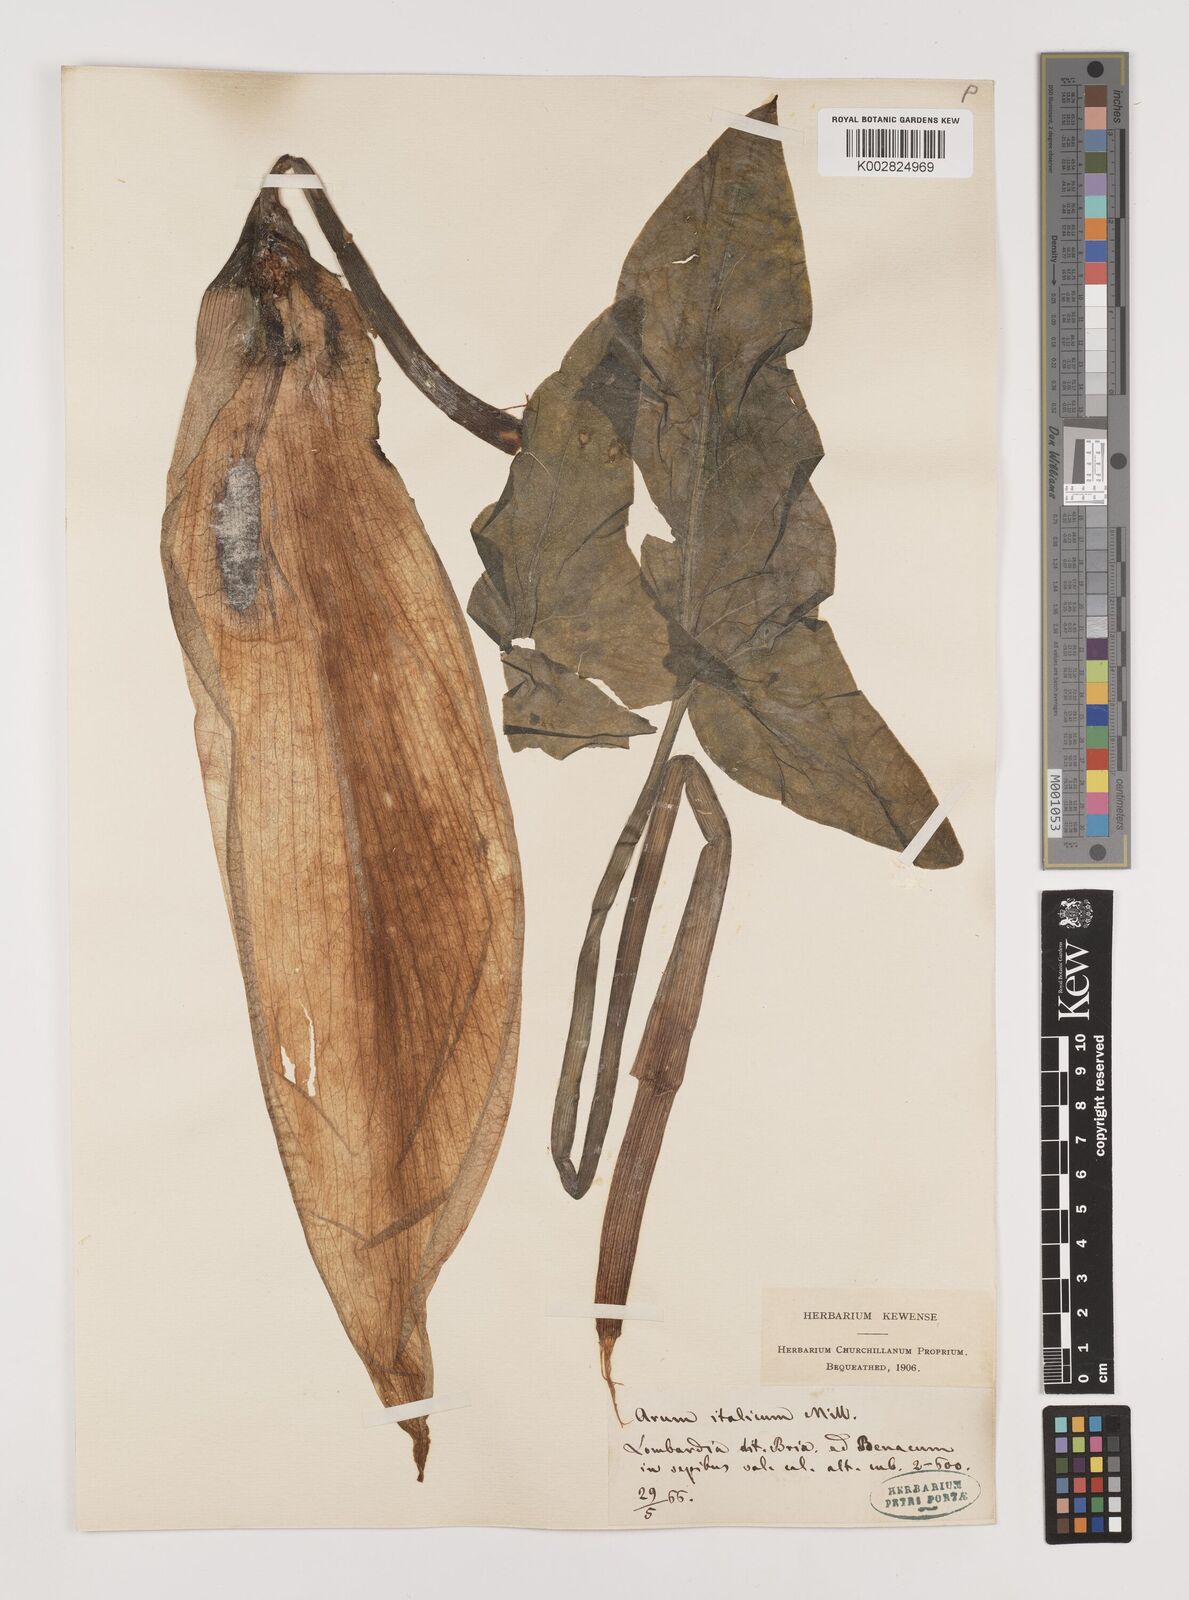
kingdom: Plantae
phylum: Tracheophyta
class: Liliopsida
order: Alismatales
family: Araceae
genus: Arum
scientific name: Arum italicum
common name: Italian lords-and-ladies
